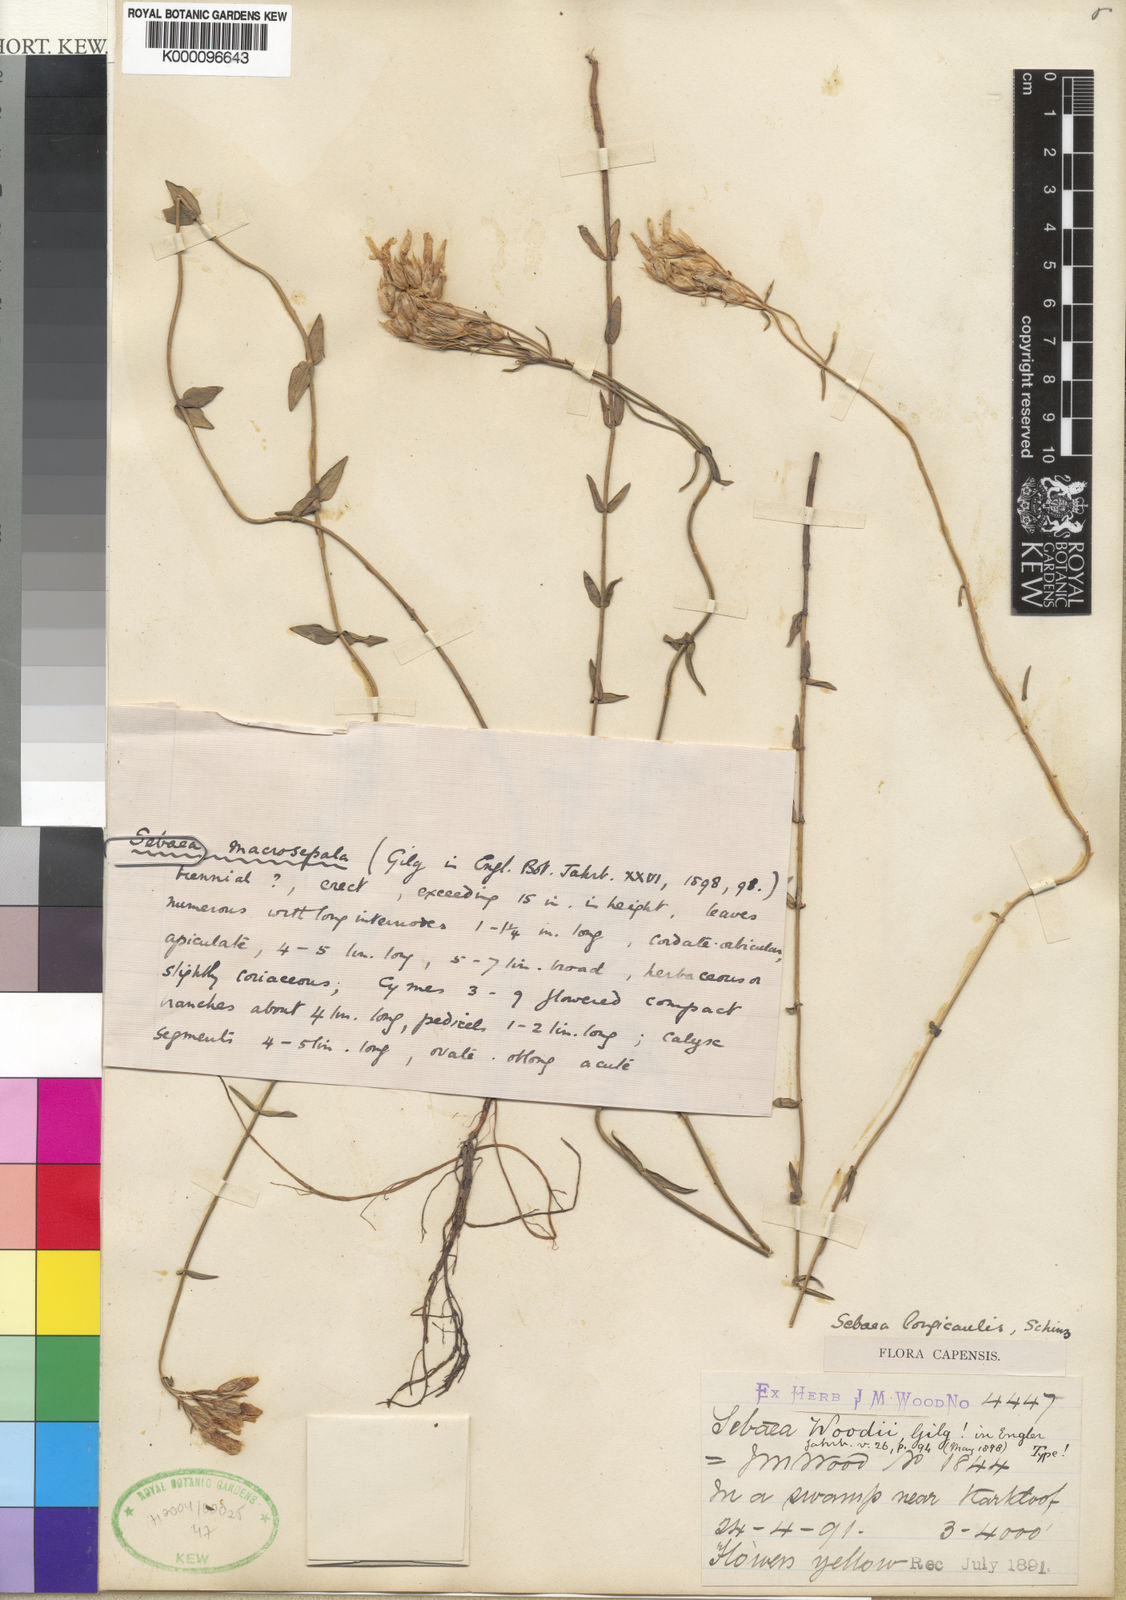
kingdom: Plantae
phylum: Tracheophyta
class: Magnoliopsida
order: Gentianales
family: Gentianaceae
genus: Sebaea
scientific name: Sebaea longicaulis
